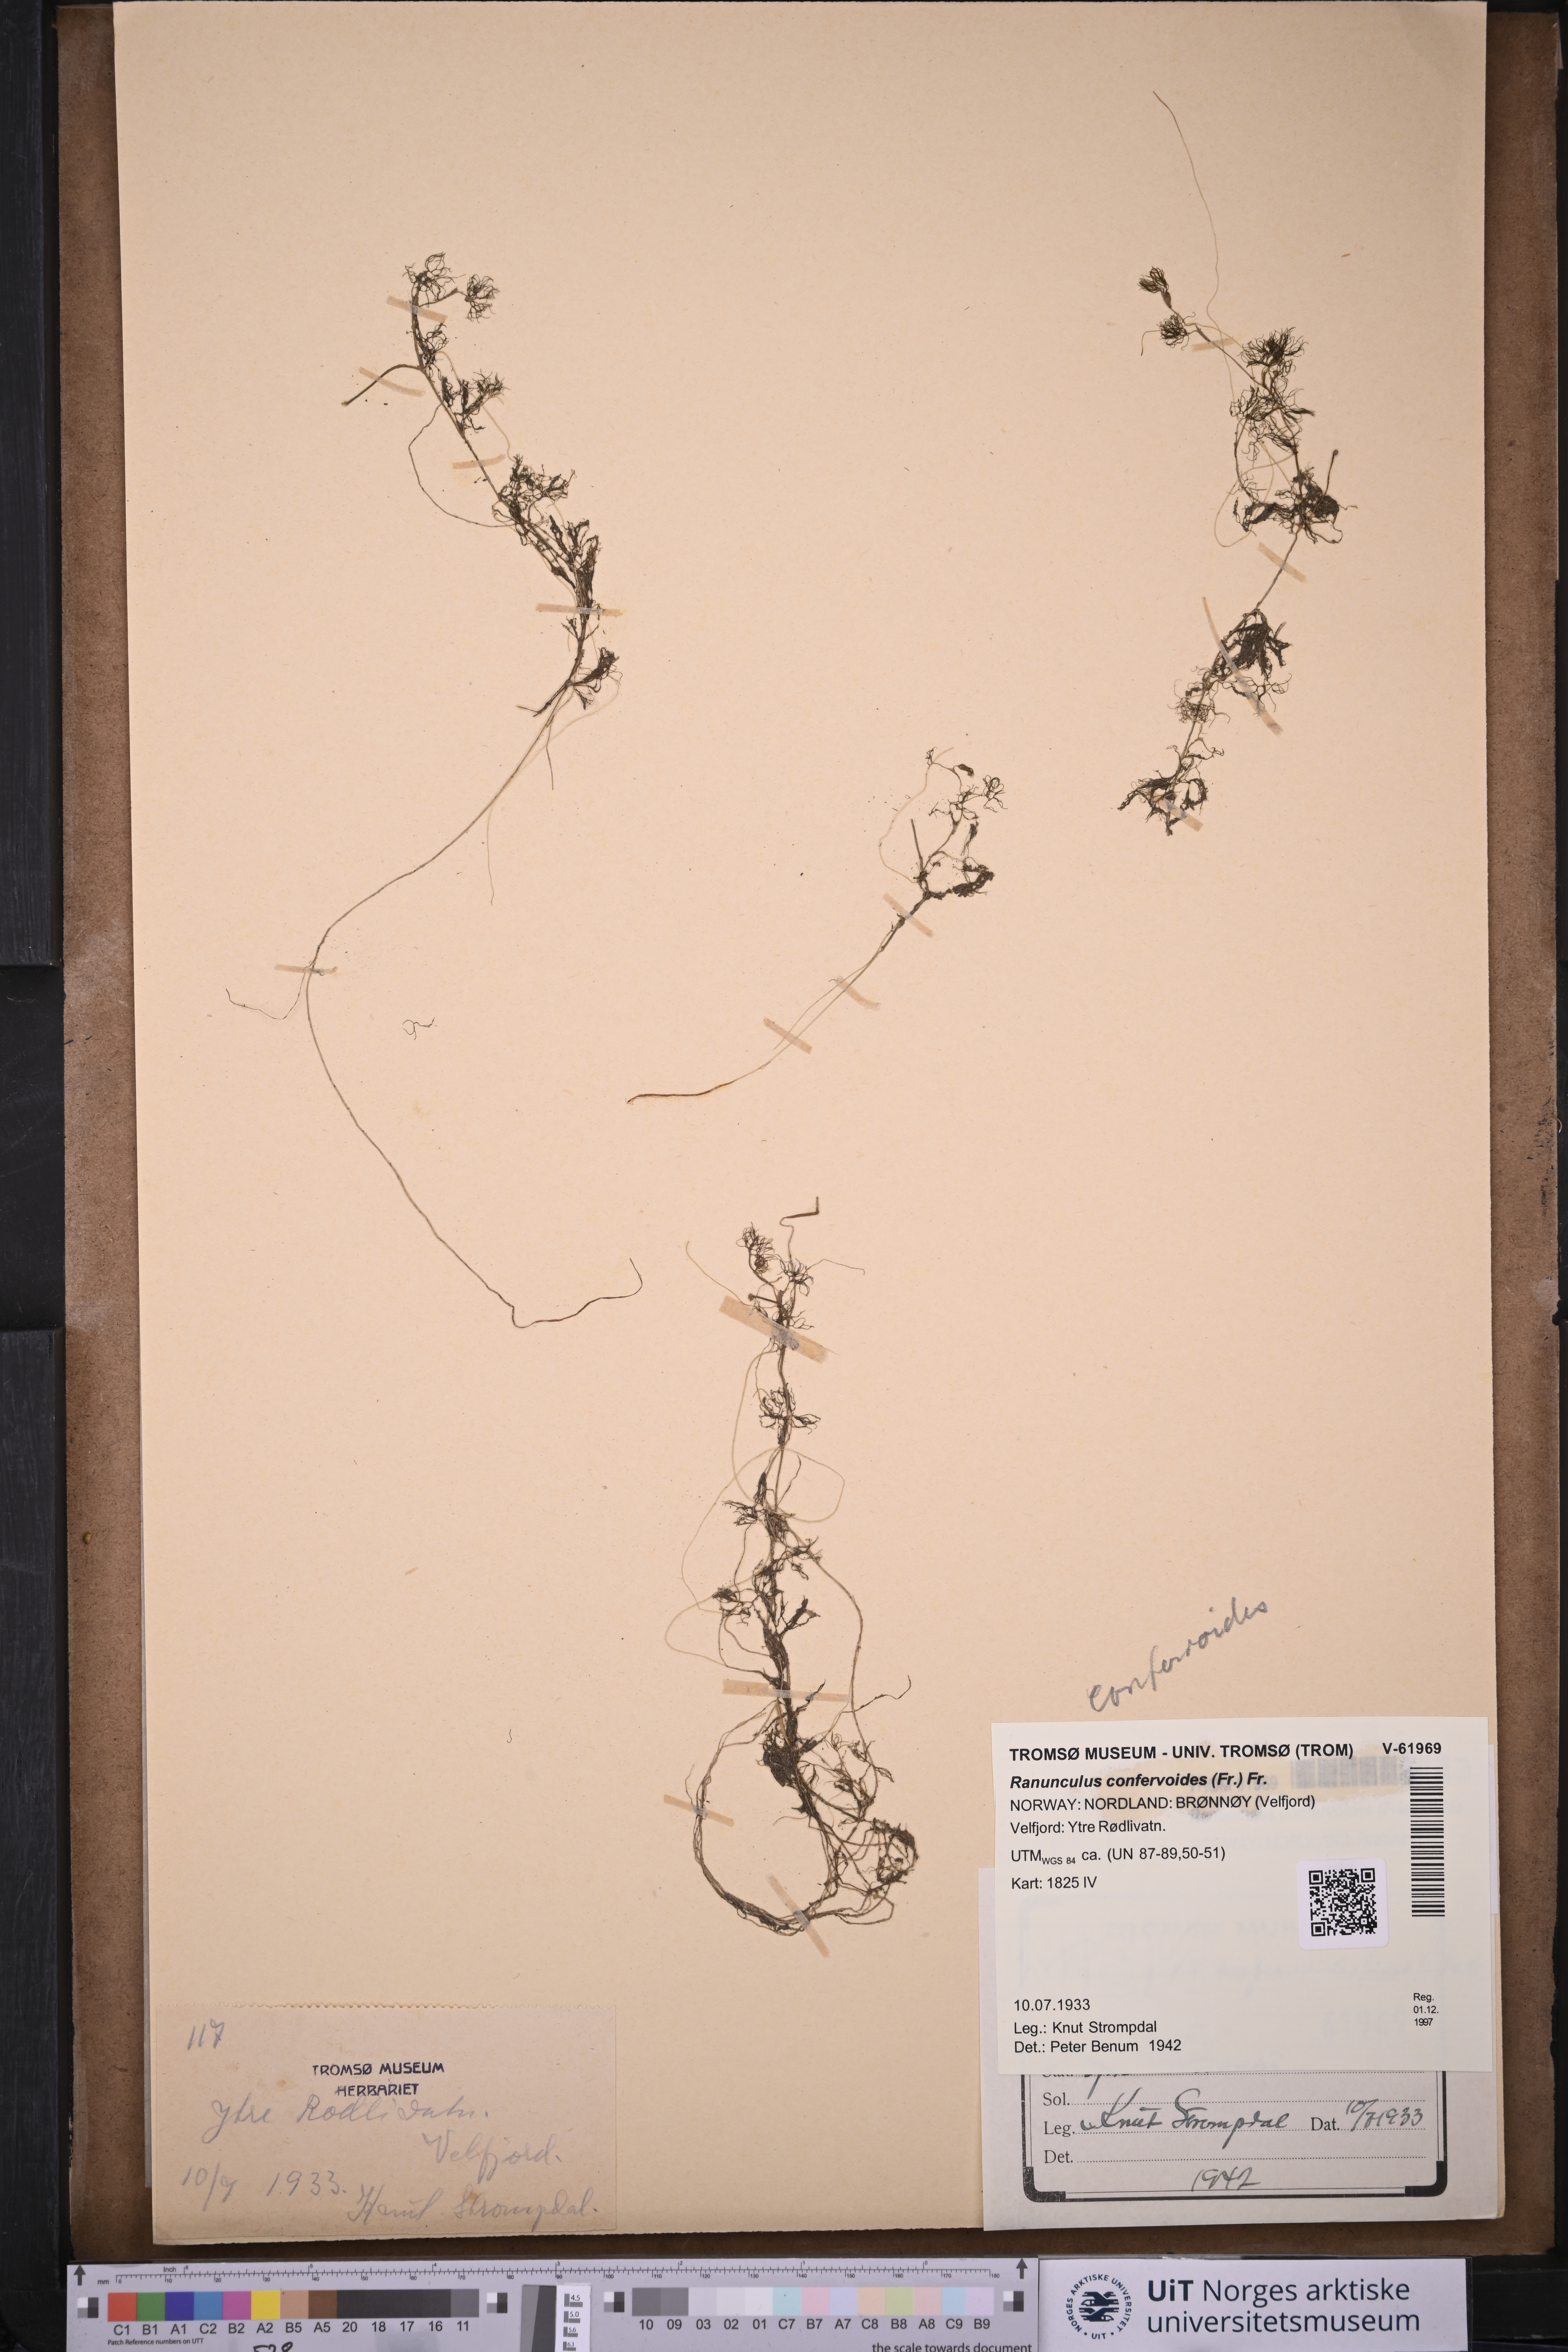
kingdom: Plantae
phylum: Tracheophyta
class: Magnoliopsida
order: Ranunculales
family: Ranunculaceae
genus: Ranunculus
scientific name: Ranunculus confervoides
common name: Delicate buttercup
